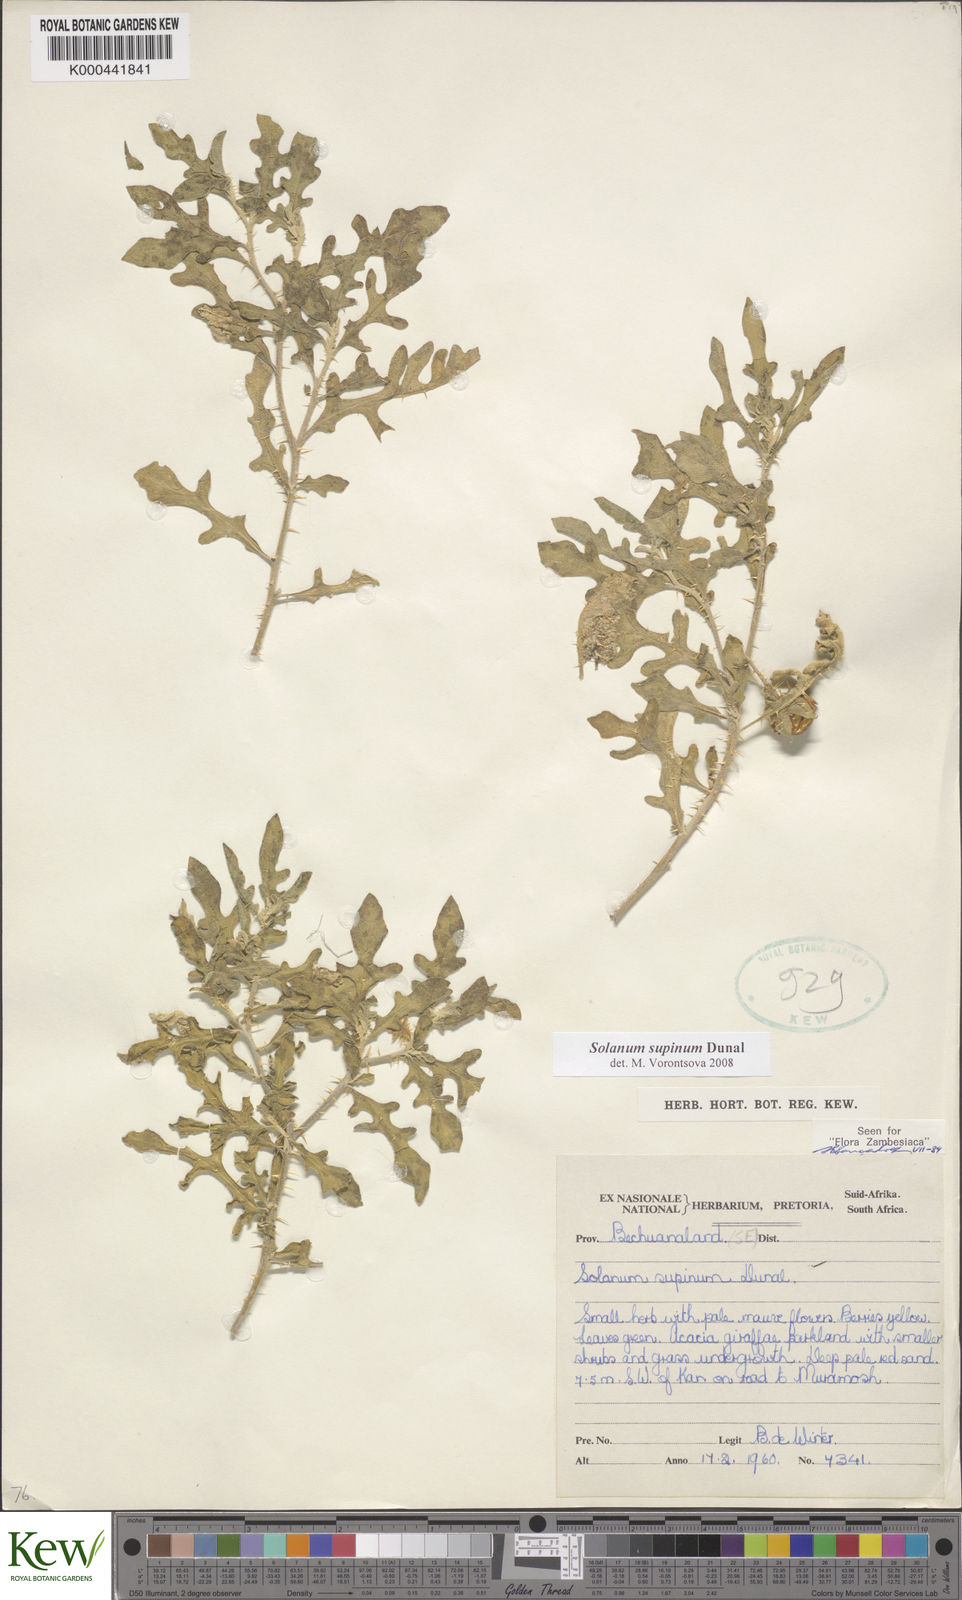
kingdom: Plantae
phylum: Tracheophyta
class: Magnoliopsida
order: Solanales
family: Solanaceae
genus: Solanum
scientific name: Solanum supinum
